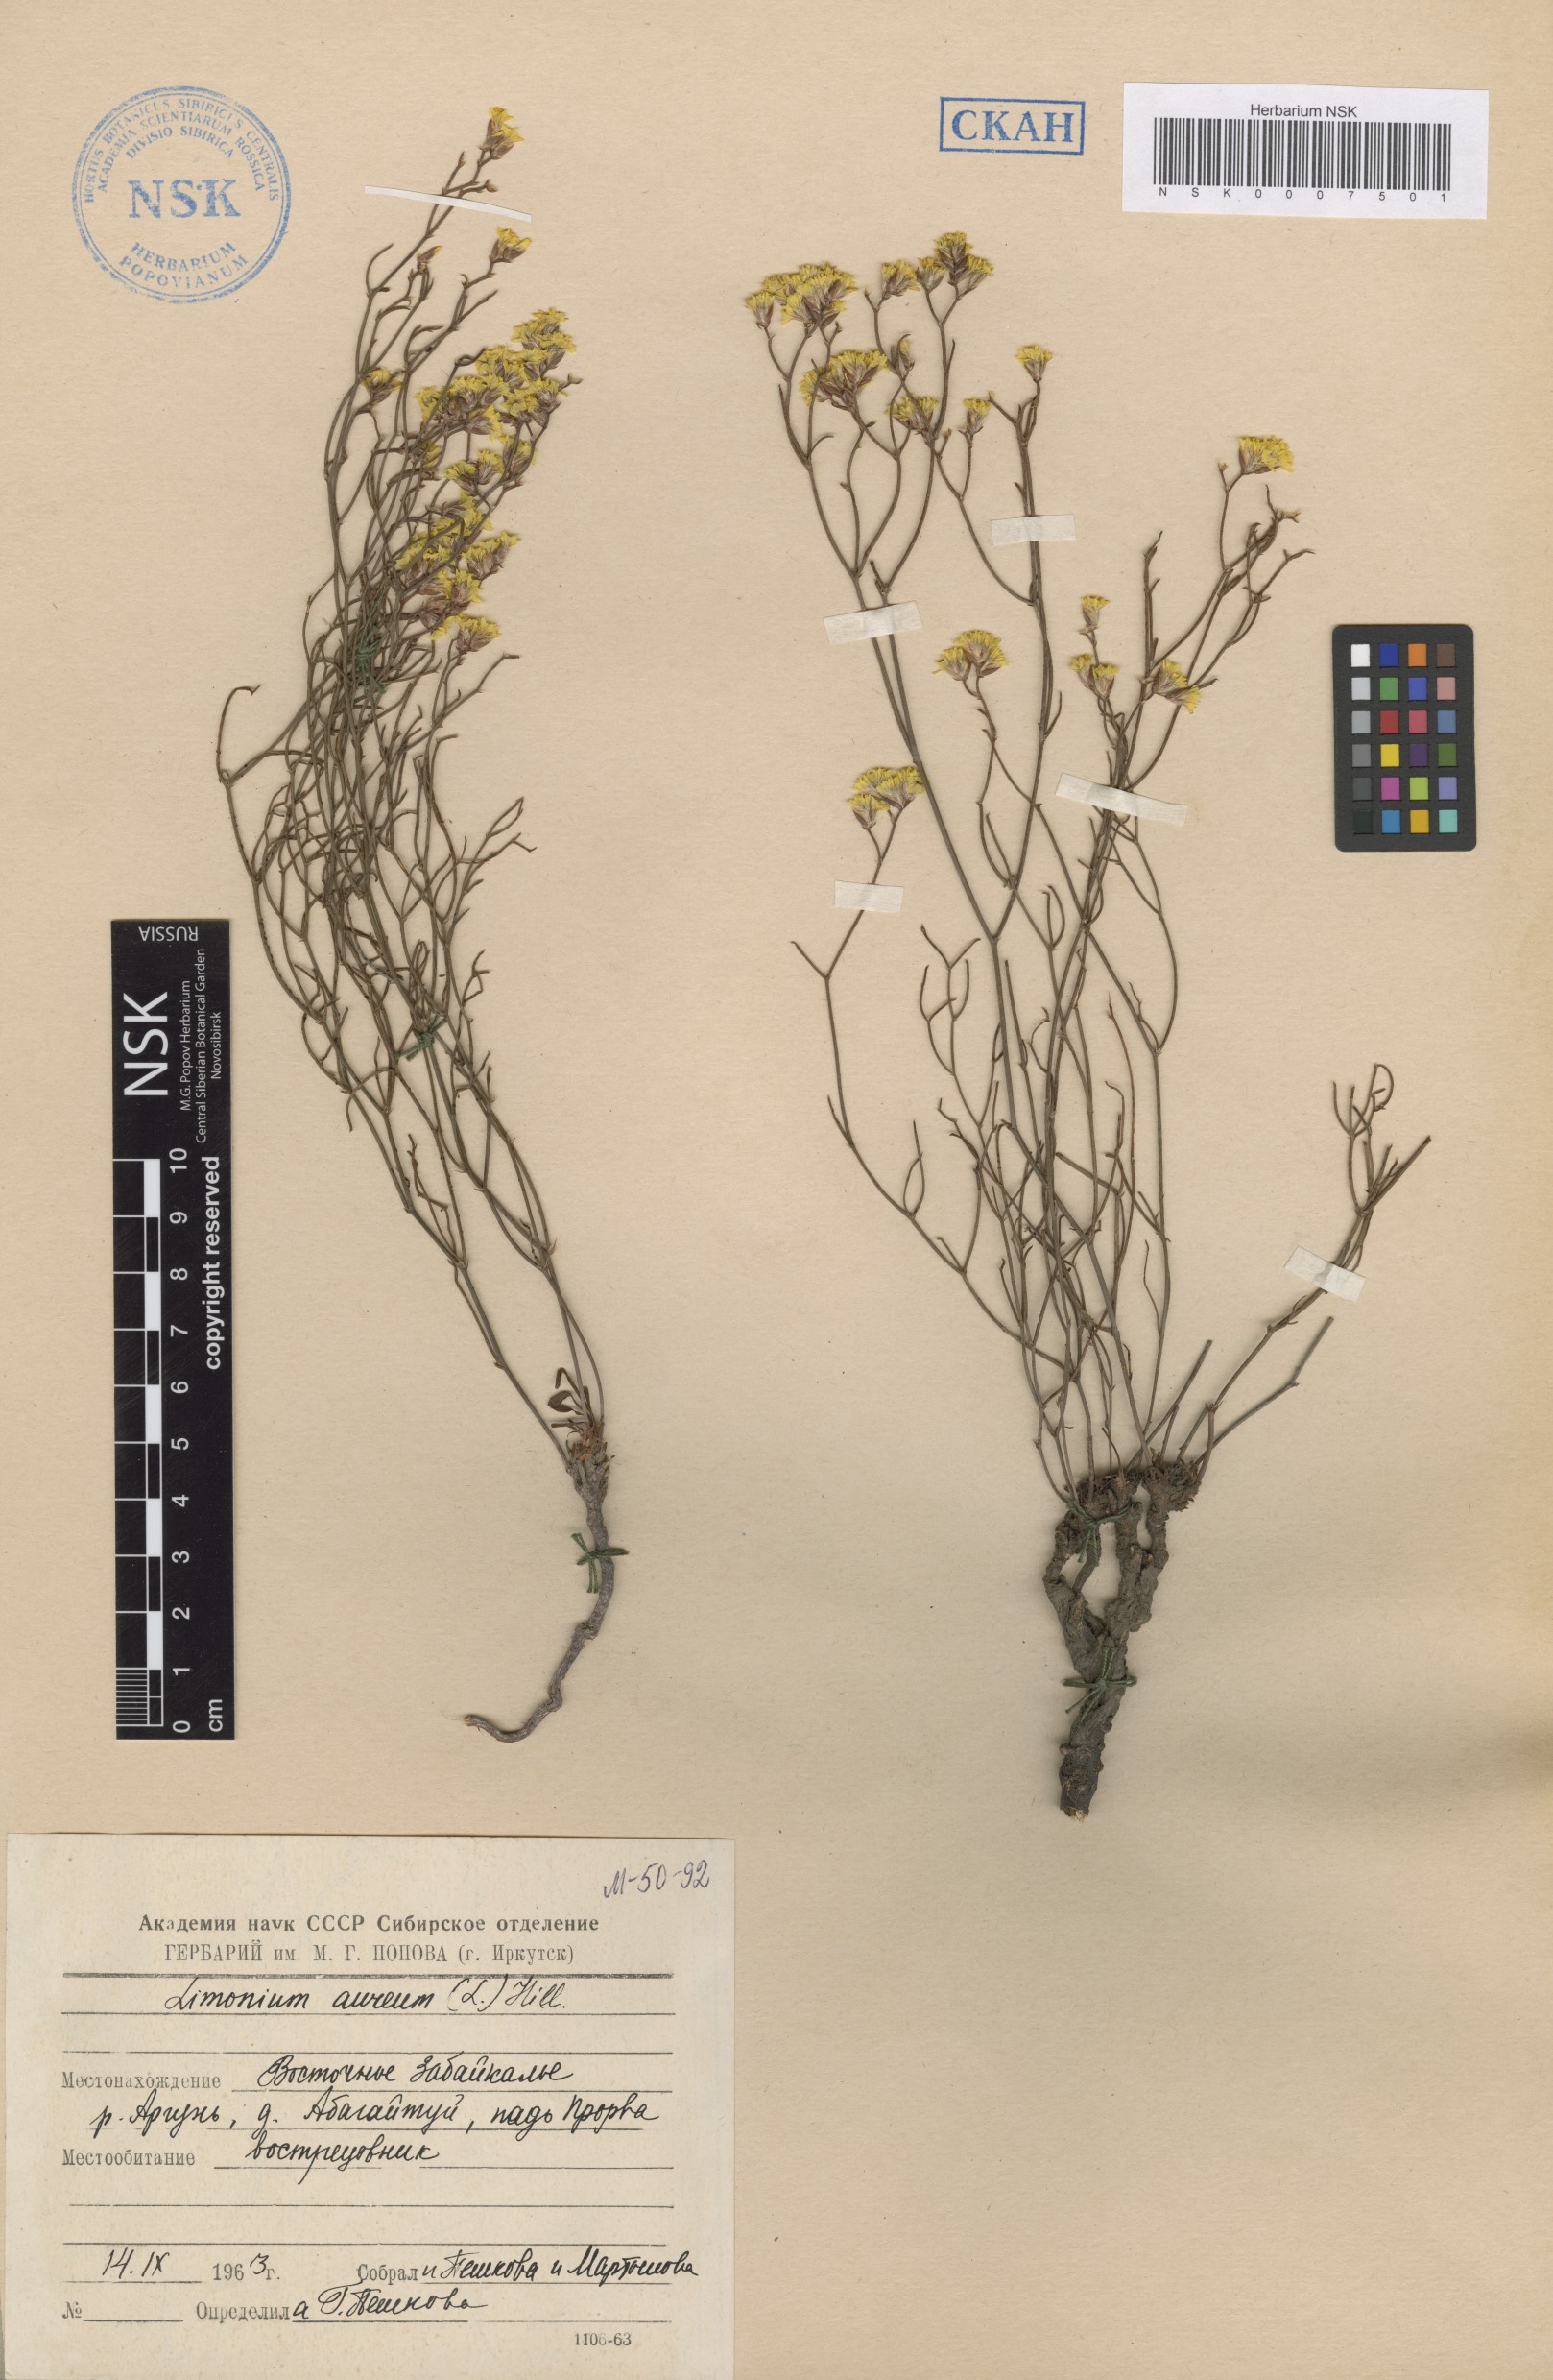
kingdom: Plantae
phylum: Tracheophyta
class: Magnoliopsida
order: Caryophyllales
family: Plumbaginaceae
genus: Limonium
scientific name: Limonium aureum
